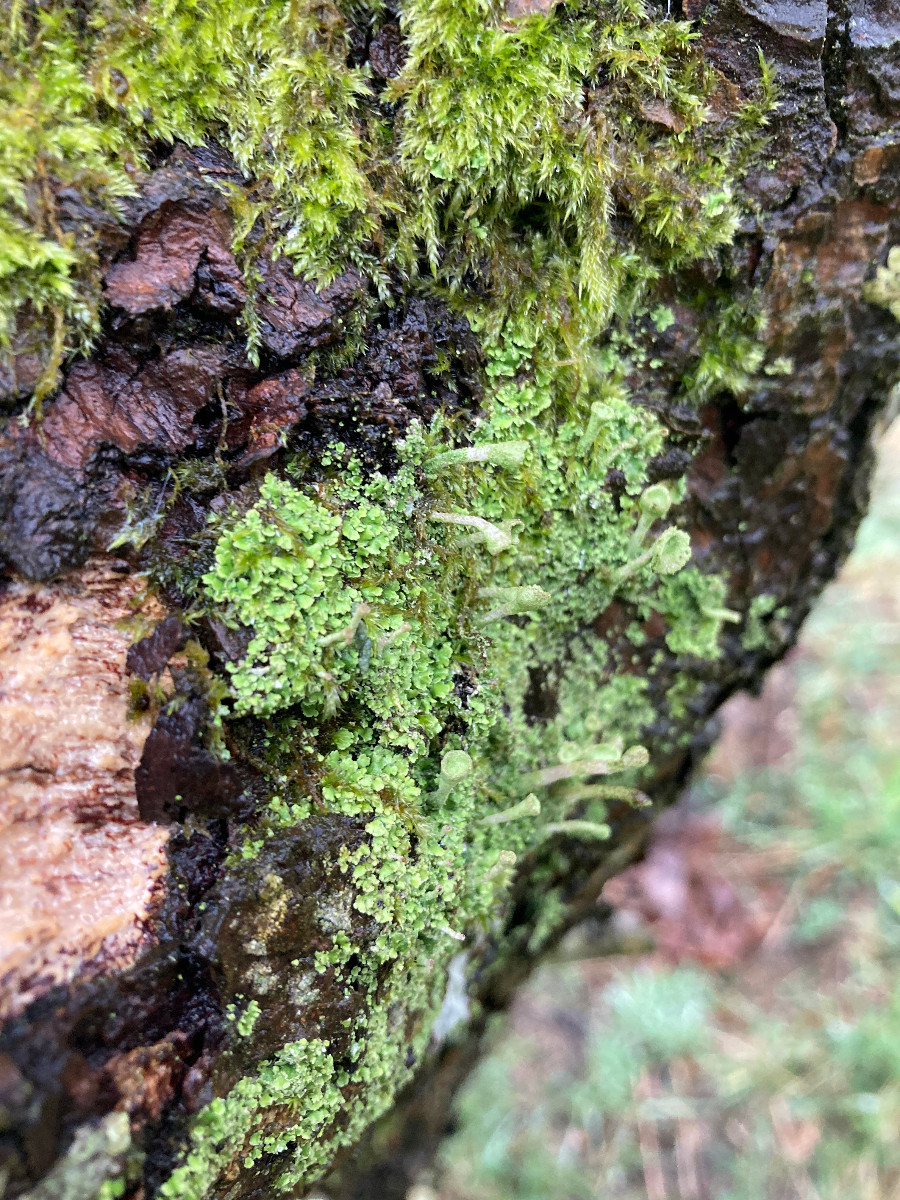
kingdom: Fungi
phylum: Ascomycota
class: Lecanoromycetes
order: Lecanorales
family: Cladoniaceae
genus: Cladonia
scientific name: Cladonia
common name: brungrøn bægerlav
